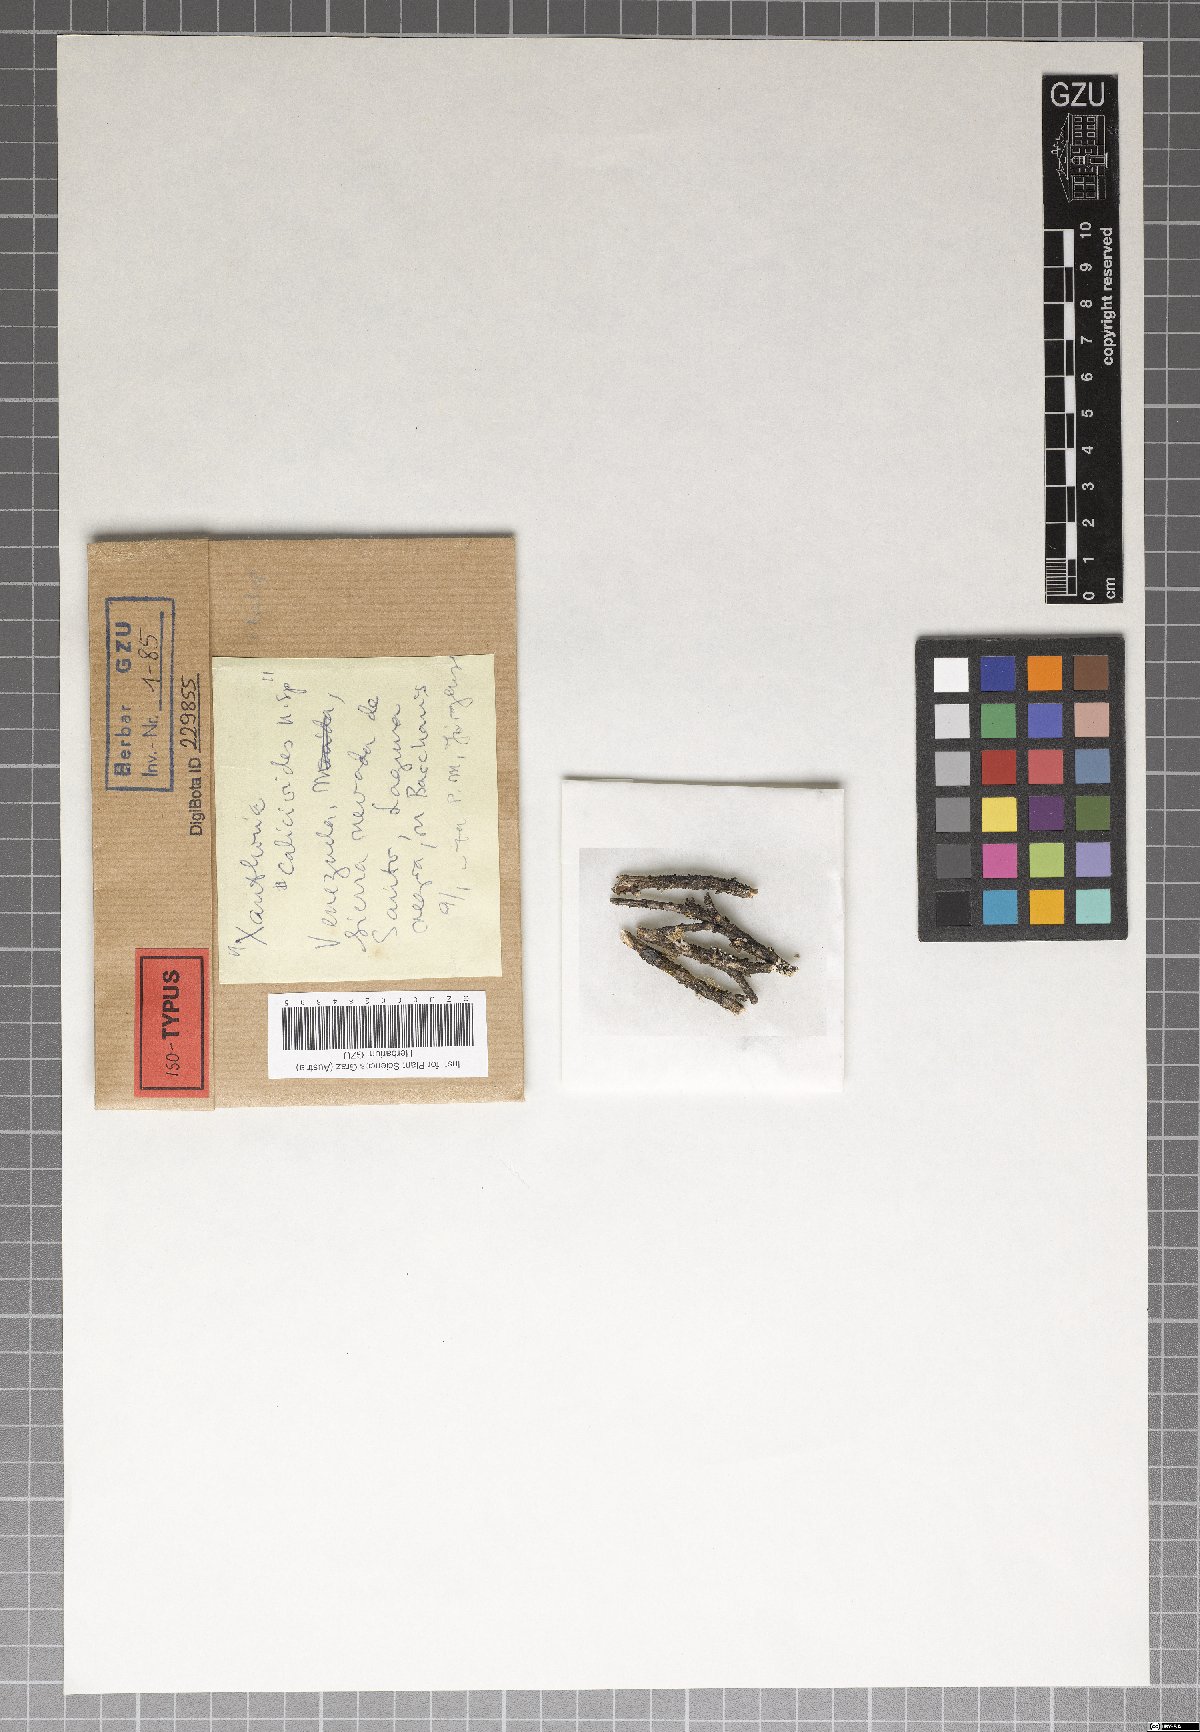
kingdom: Fungi
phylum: Ascomycota
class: Lecanoromycetes
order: Teloschistales
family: Teloschistaceae
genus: Caloplaca
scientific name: Caloplaca calicioides
